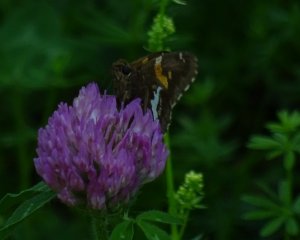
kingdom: Animalia
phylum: Arthropoda
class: Insecta
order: Lepidoptera
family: Hesperiidae
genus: Epargyreus
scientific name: Epargyreus clarus
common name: Silver-spotted Skipper
